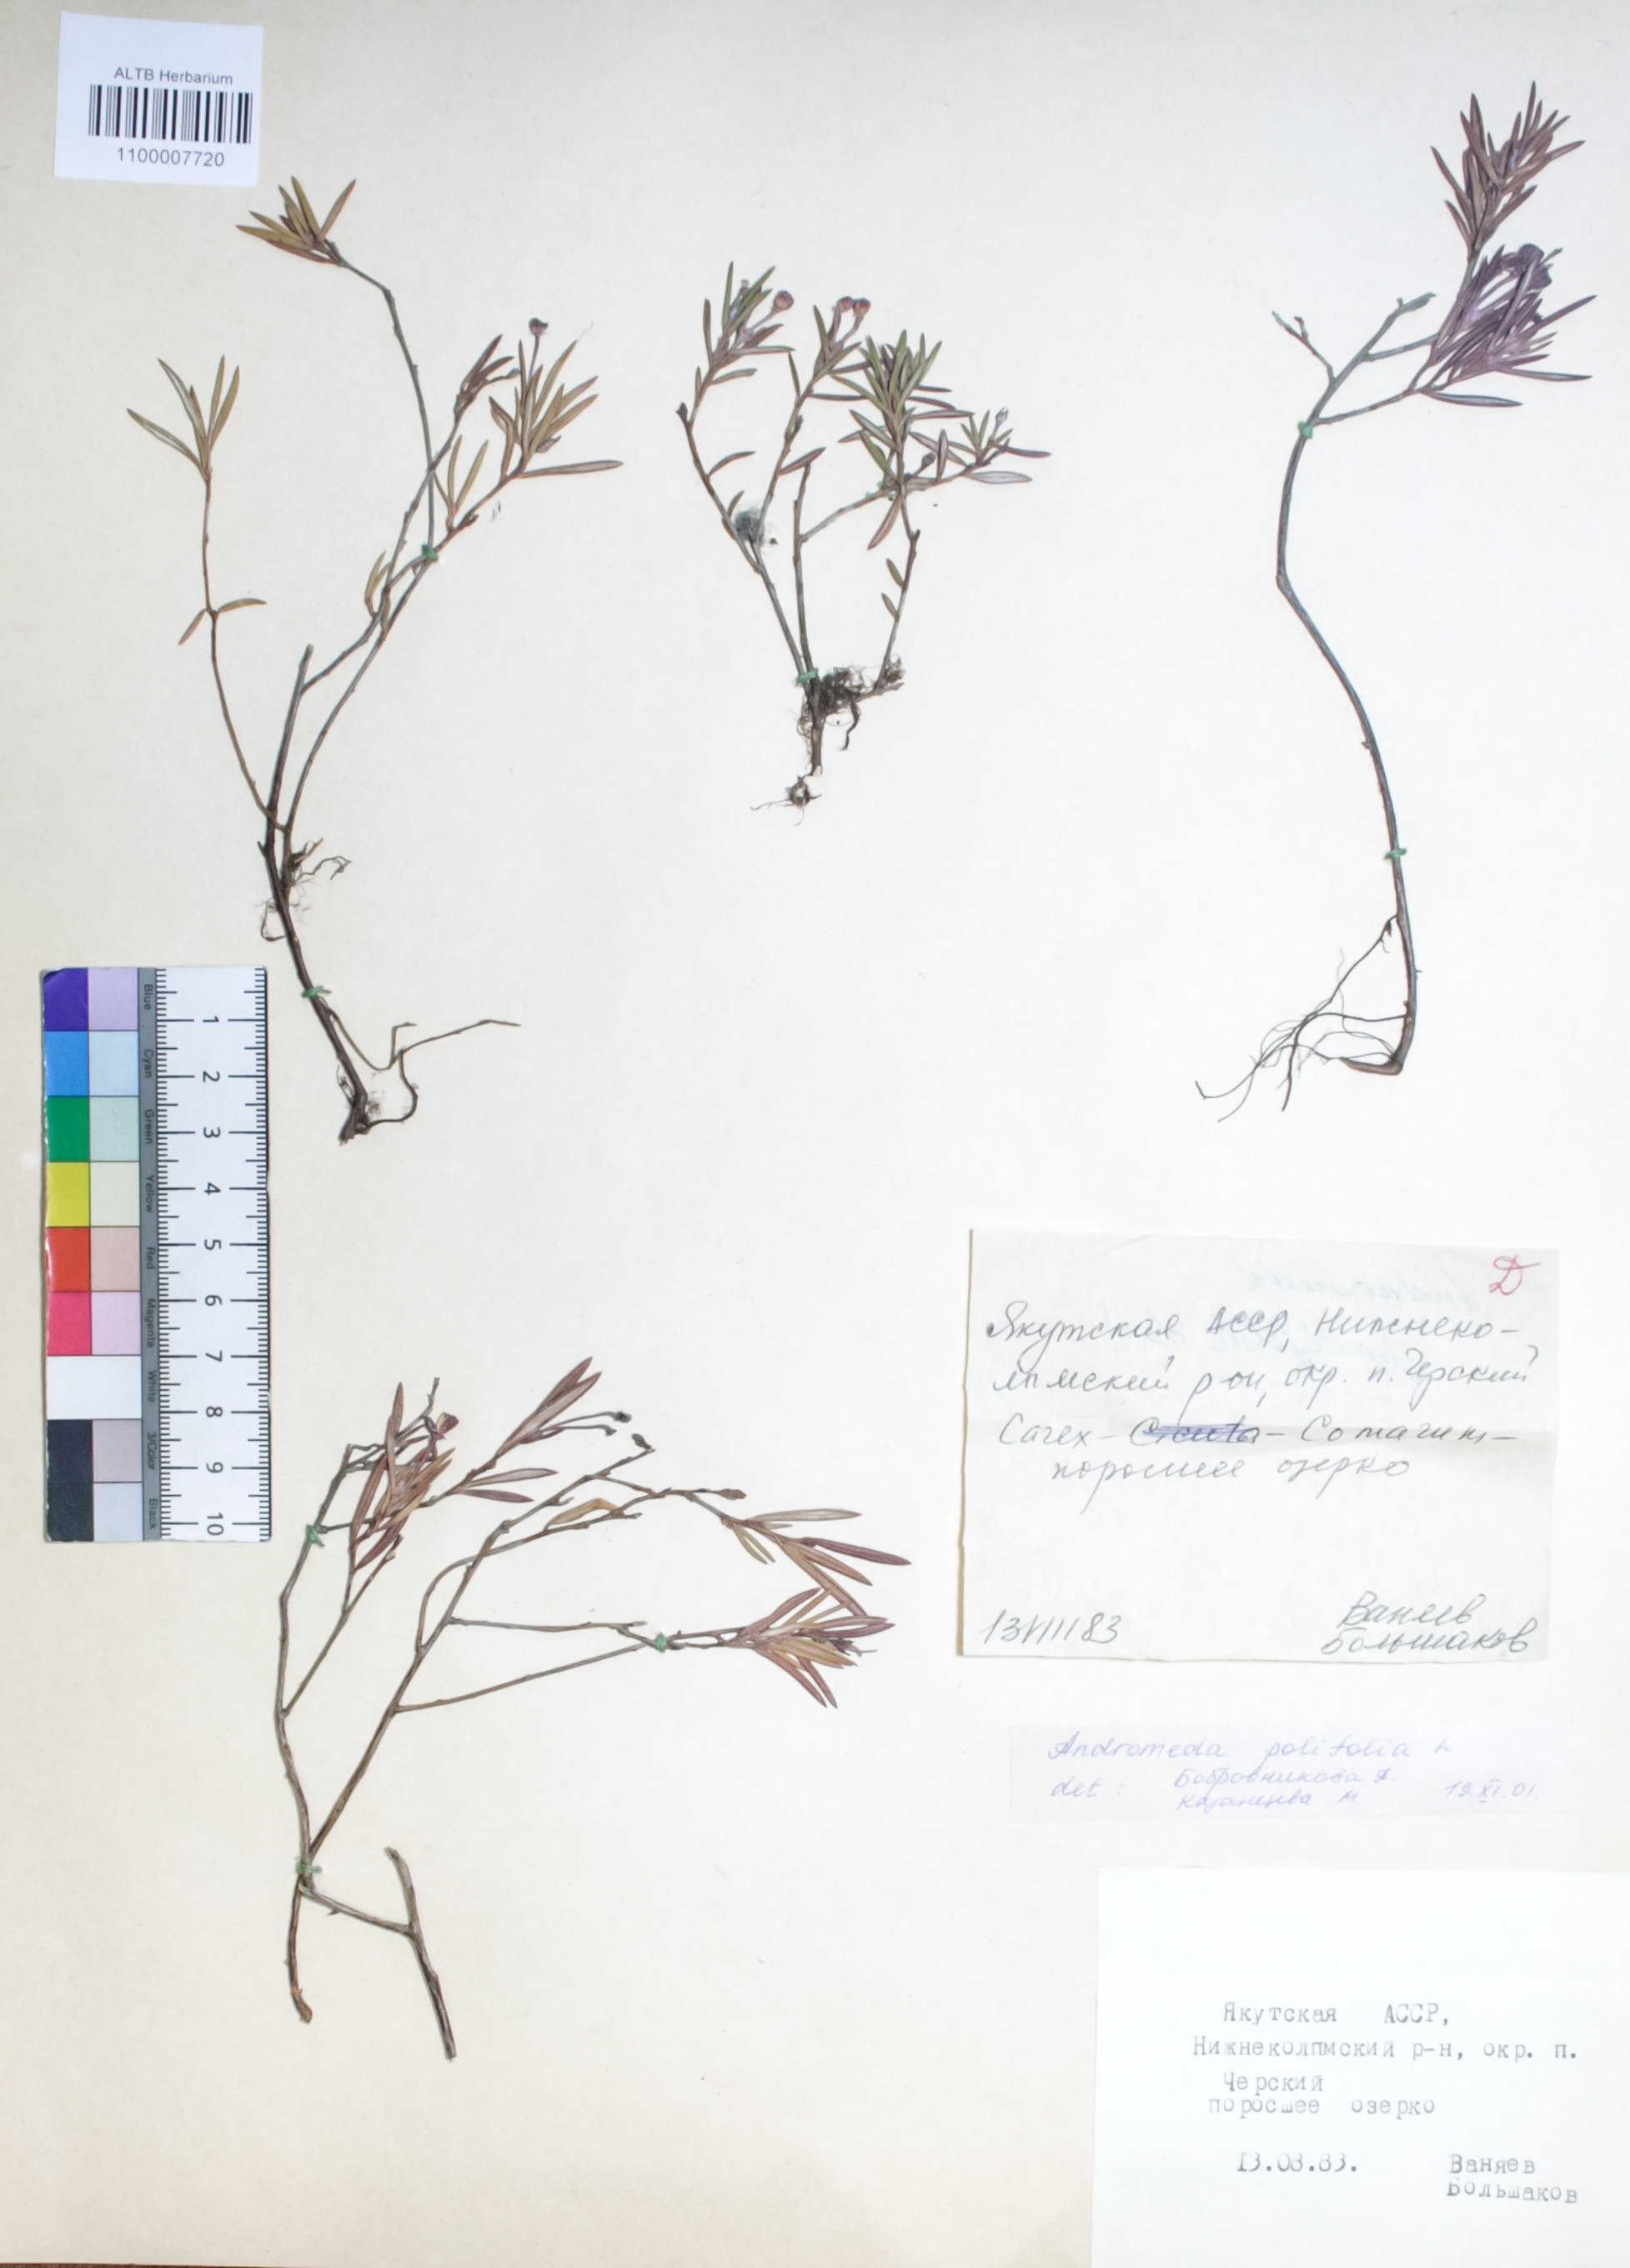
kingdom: Plantae
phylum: Tracheophyta
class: Magnoliopsida
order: Ericales
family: Ericaceae
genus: Andromeda
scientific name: Andromeda polifolia
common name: Bog-rosemary
